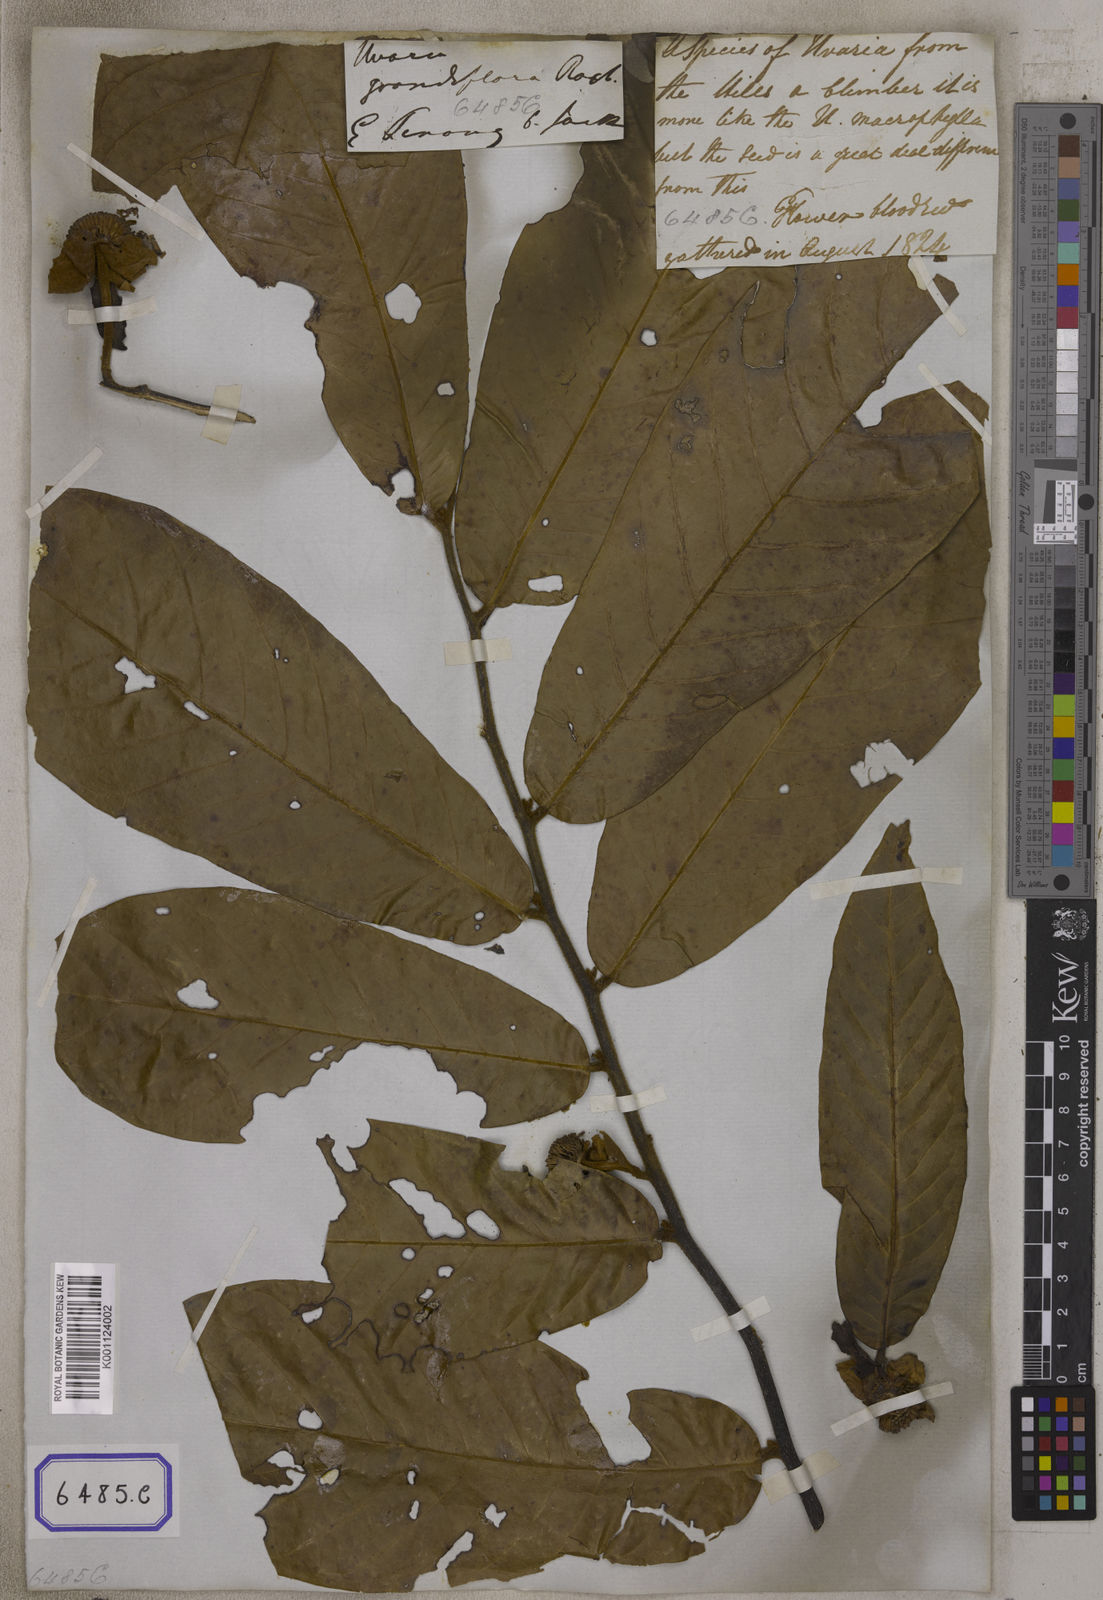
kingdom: Plantae
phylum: Tracheophyta
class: Magnoliopsida
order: Magnoliales
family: Annonaceae
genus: Uvaria
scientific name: Uvaria grandiflora
